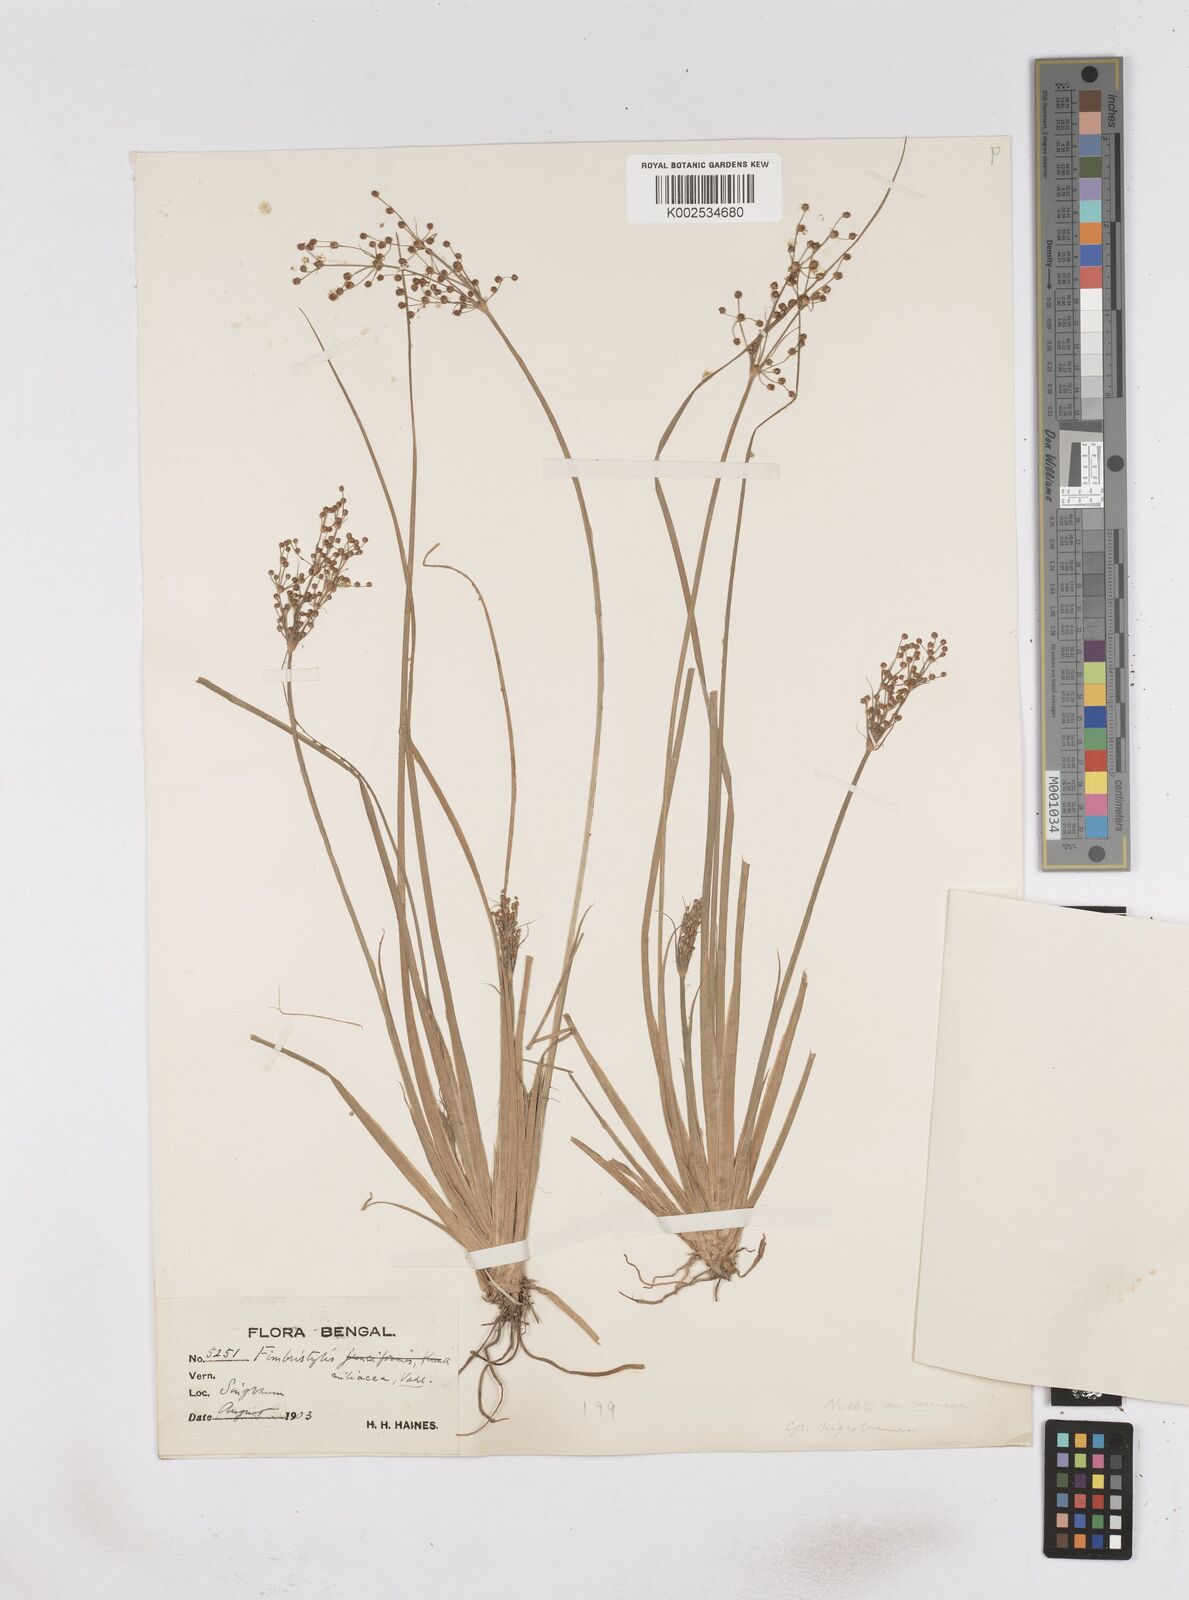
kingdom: Plantae
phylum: Tracheophyta
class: Liliopsida
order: Poales
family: Cyperaceae
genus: Fimbristylis
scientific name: Fimbristylis littoralis
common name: Fimbry
